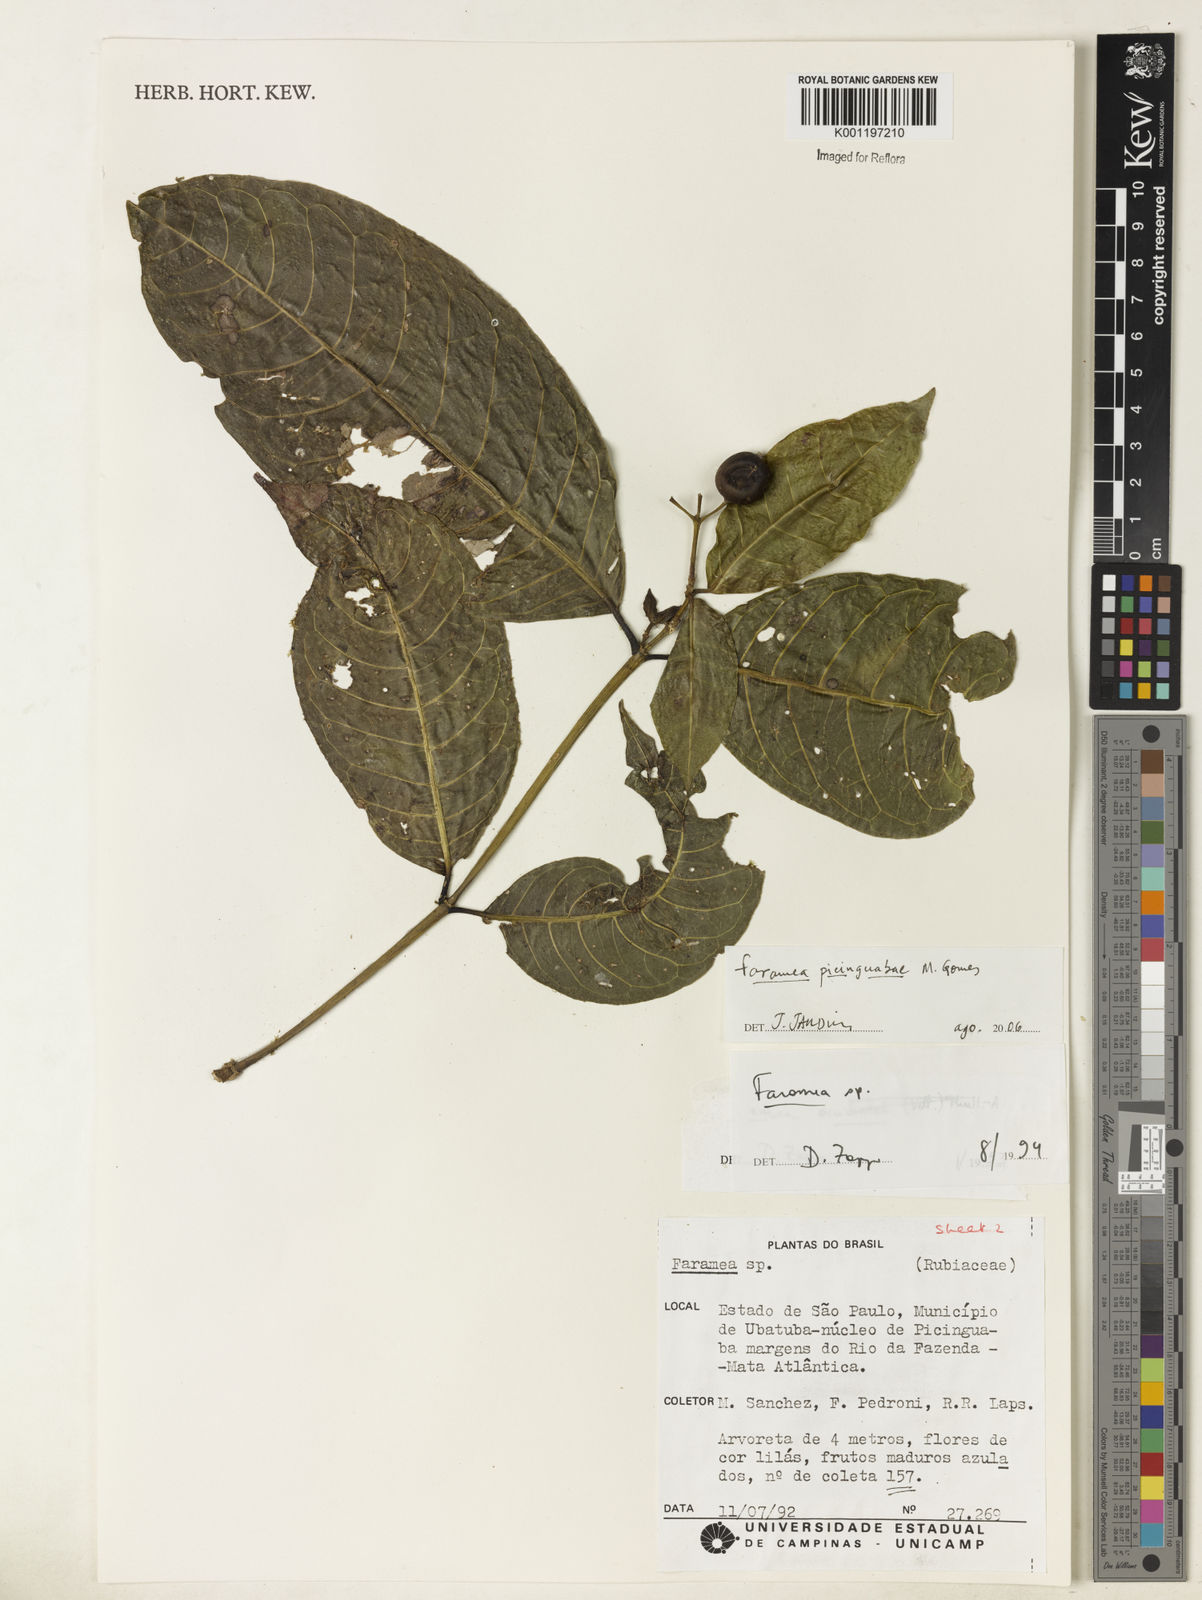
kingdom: Plantae
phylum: Tracheophyta
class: Magnoliopsida
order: Gentianales
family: Rubiaceae
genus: Faramea
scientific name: Faramea picinguabae
